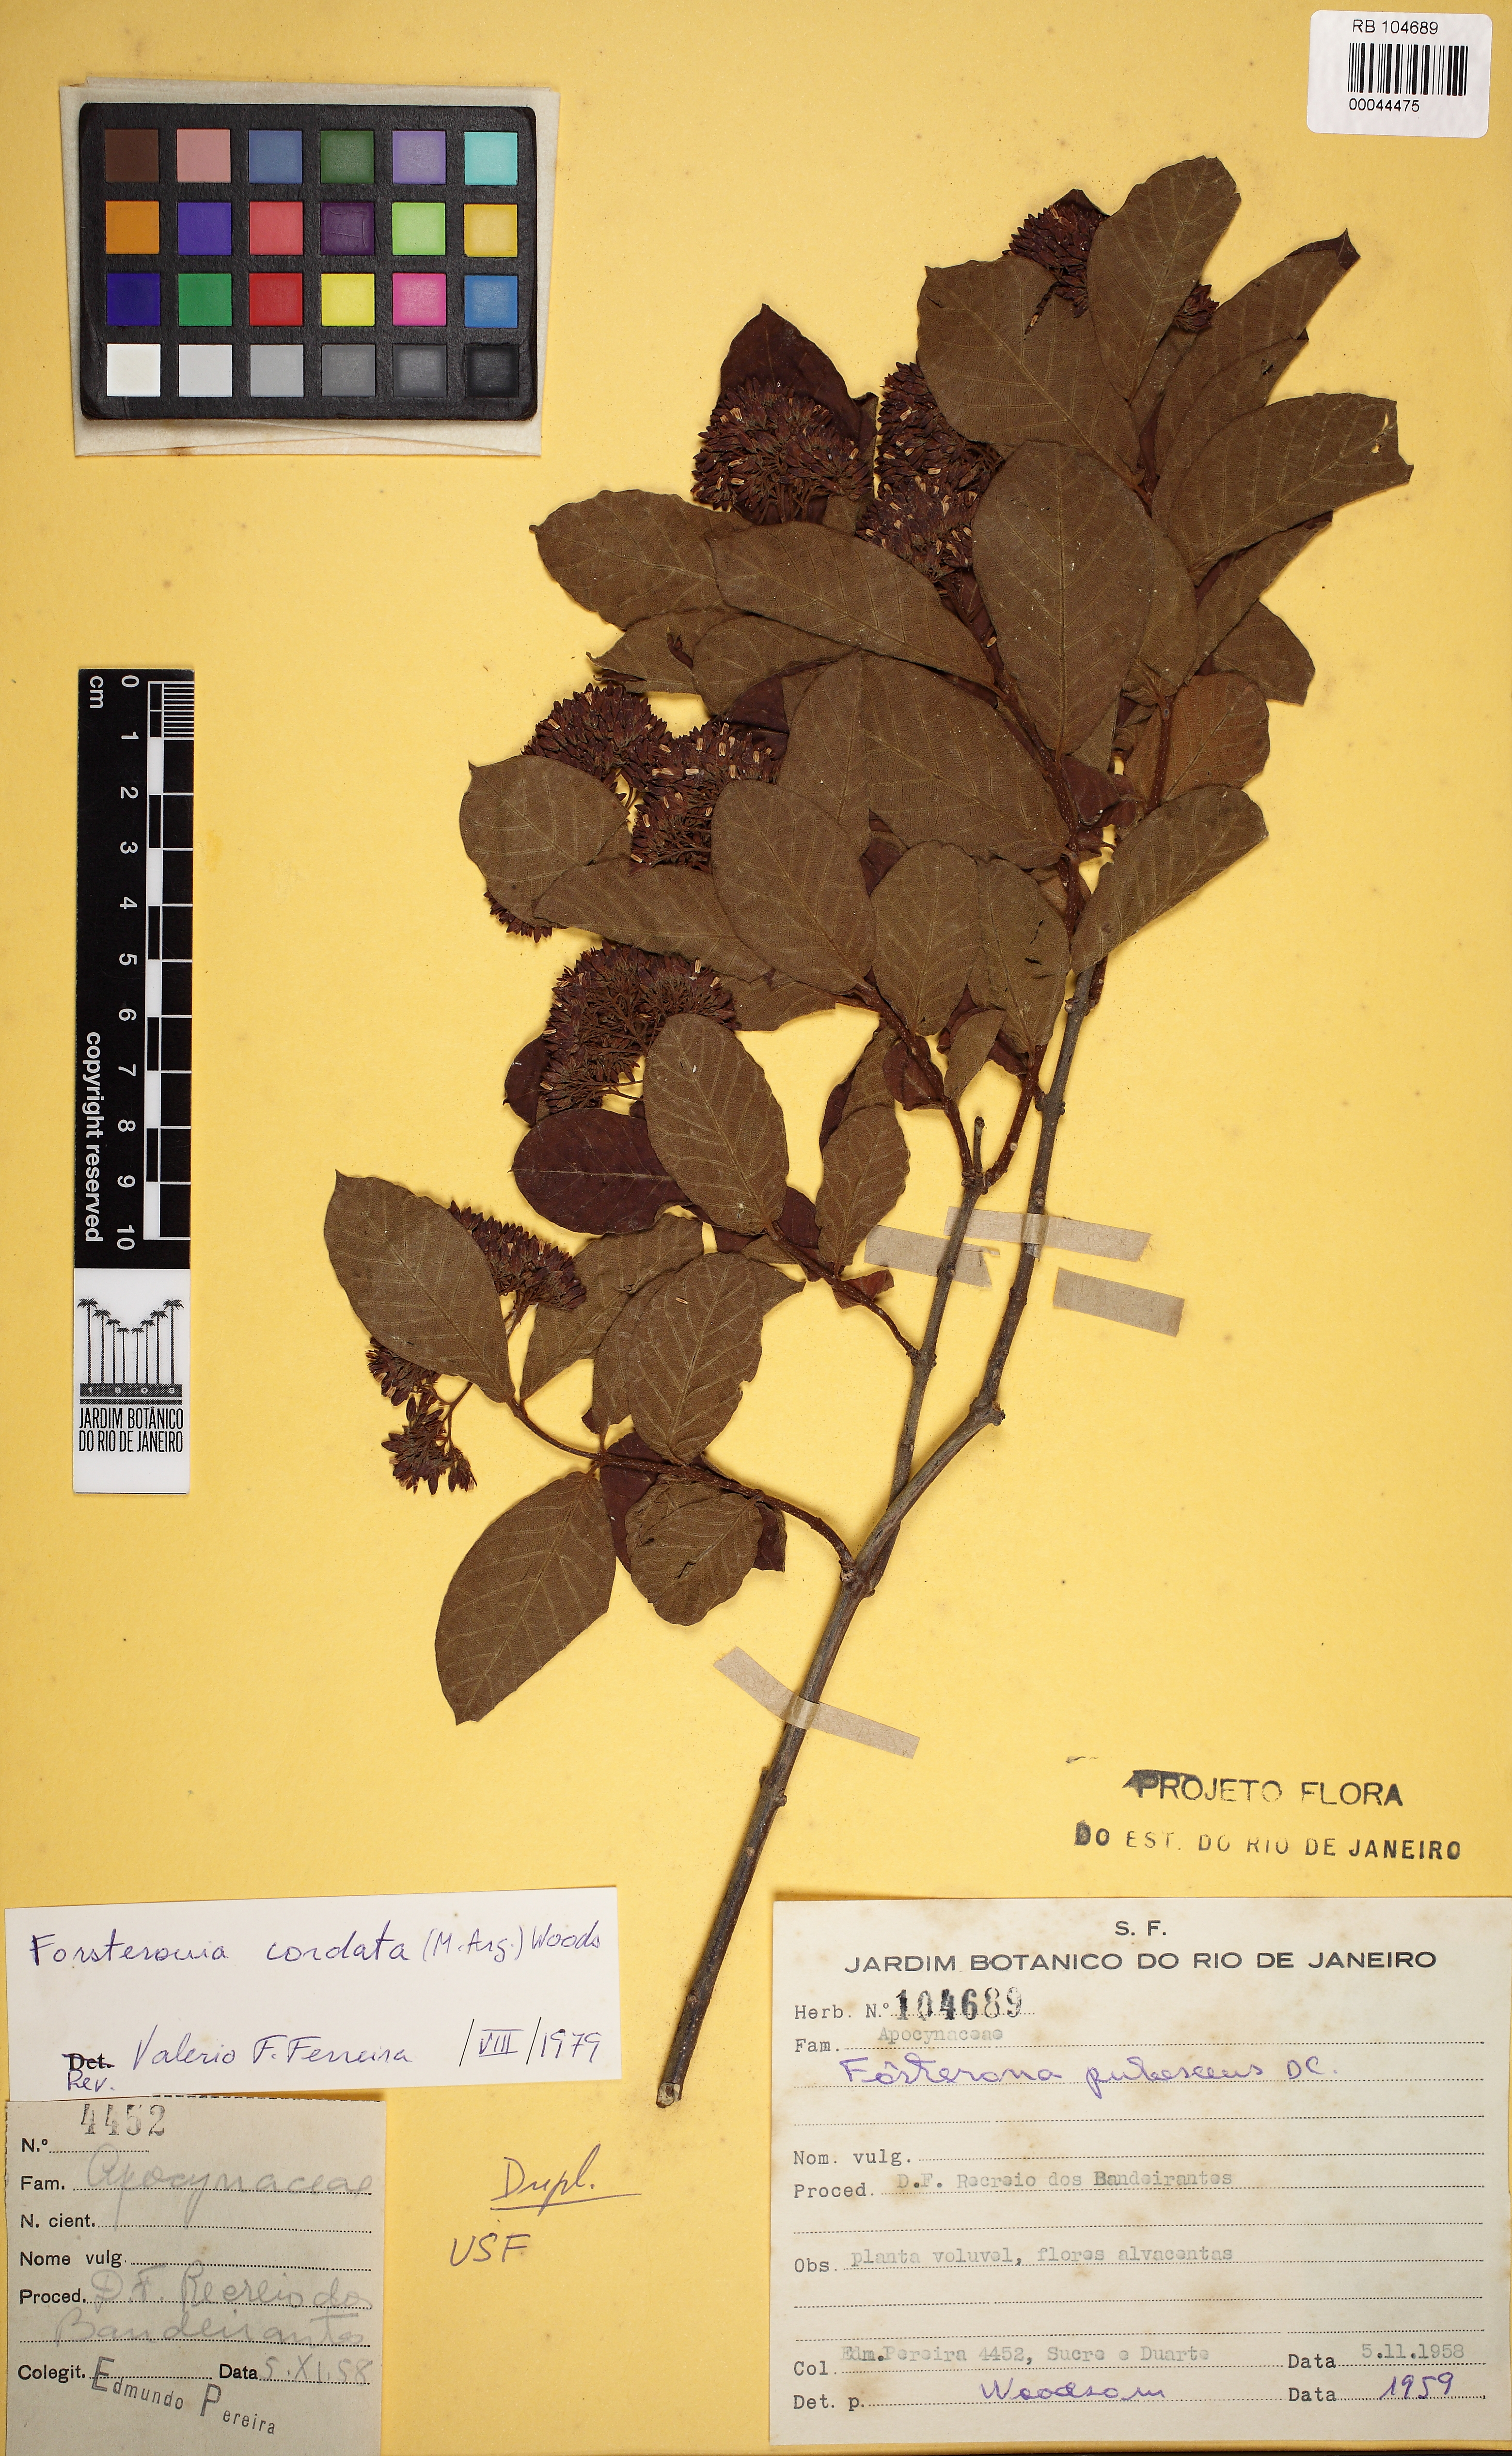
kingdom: Plantae
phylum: Tracheophyta
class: Magnoliopsida
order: Gentianales
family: Apocynaceae
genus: Forsteronia
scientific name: Forsteronia cordata
